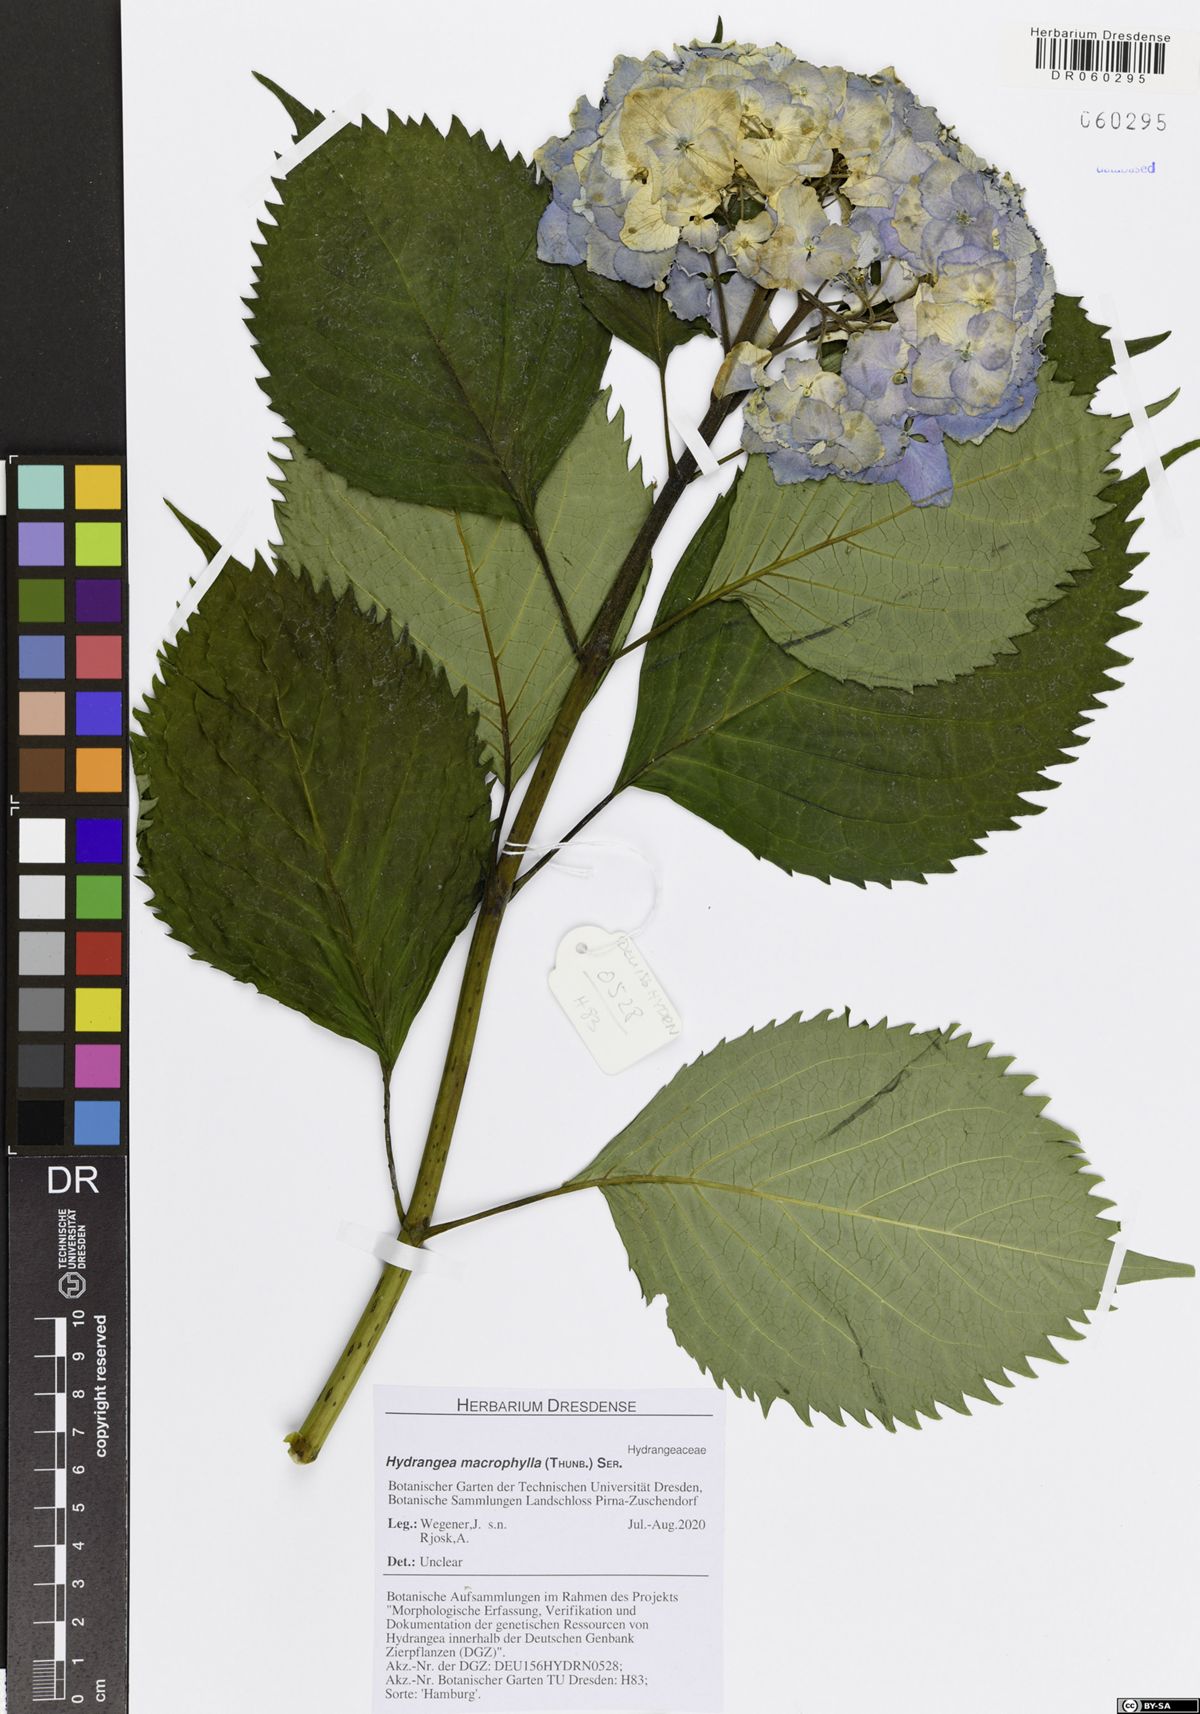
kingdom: Plantae
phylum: Tracheophyta
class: Magnoliopsida
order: Cornales
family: Hydrangeaceae
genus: Hydrangea
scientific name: Hydrangea macrophylla
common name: Hydrangea
